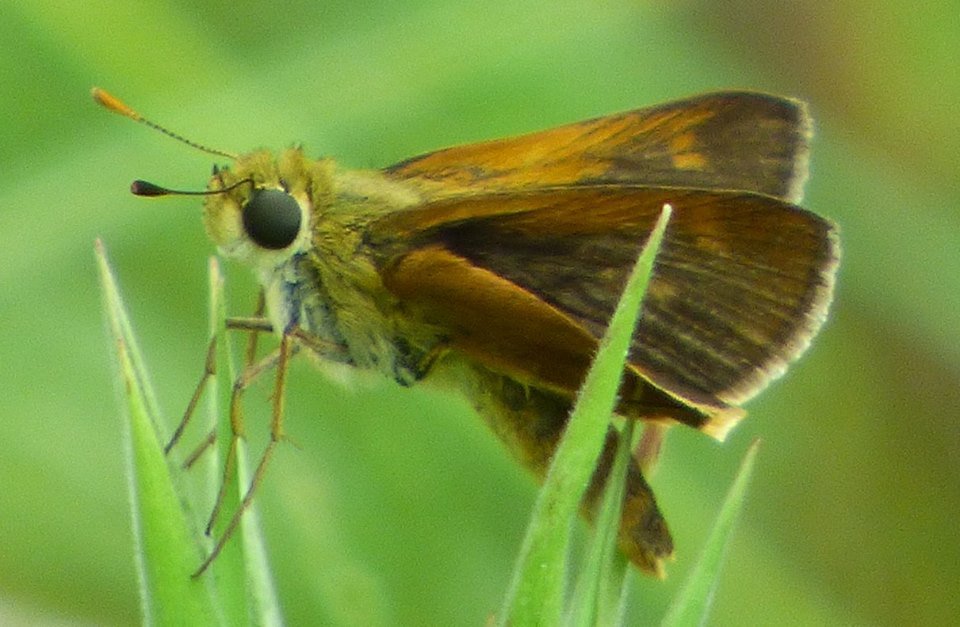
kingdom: Animalia
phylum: Arthropoda
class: Insecta
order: Lepidoptera
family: Hesperiidae
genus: Polites
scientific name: Polites themistocles
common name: Tawny-edged Skipper
